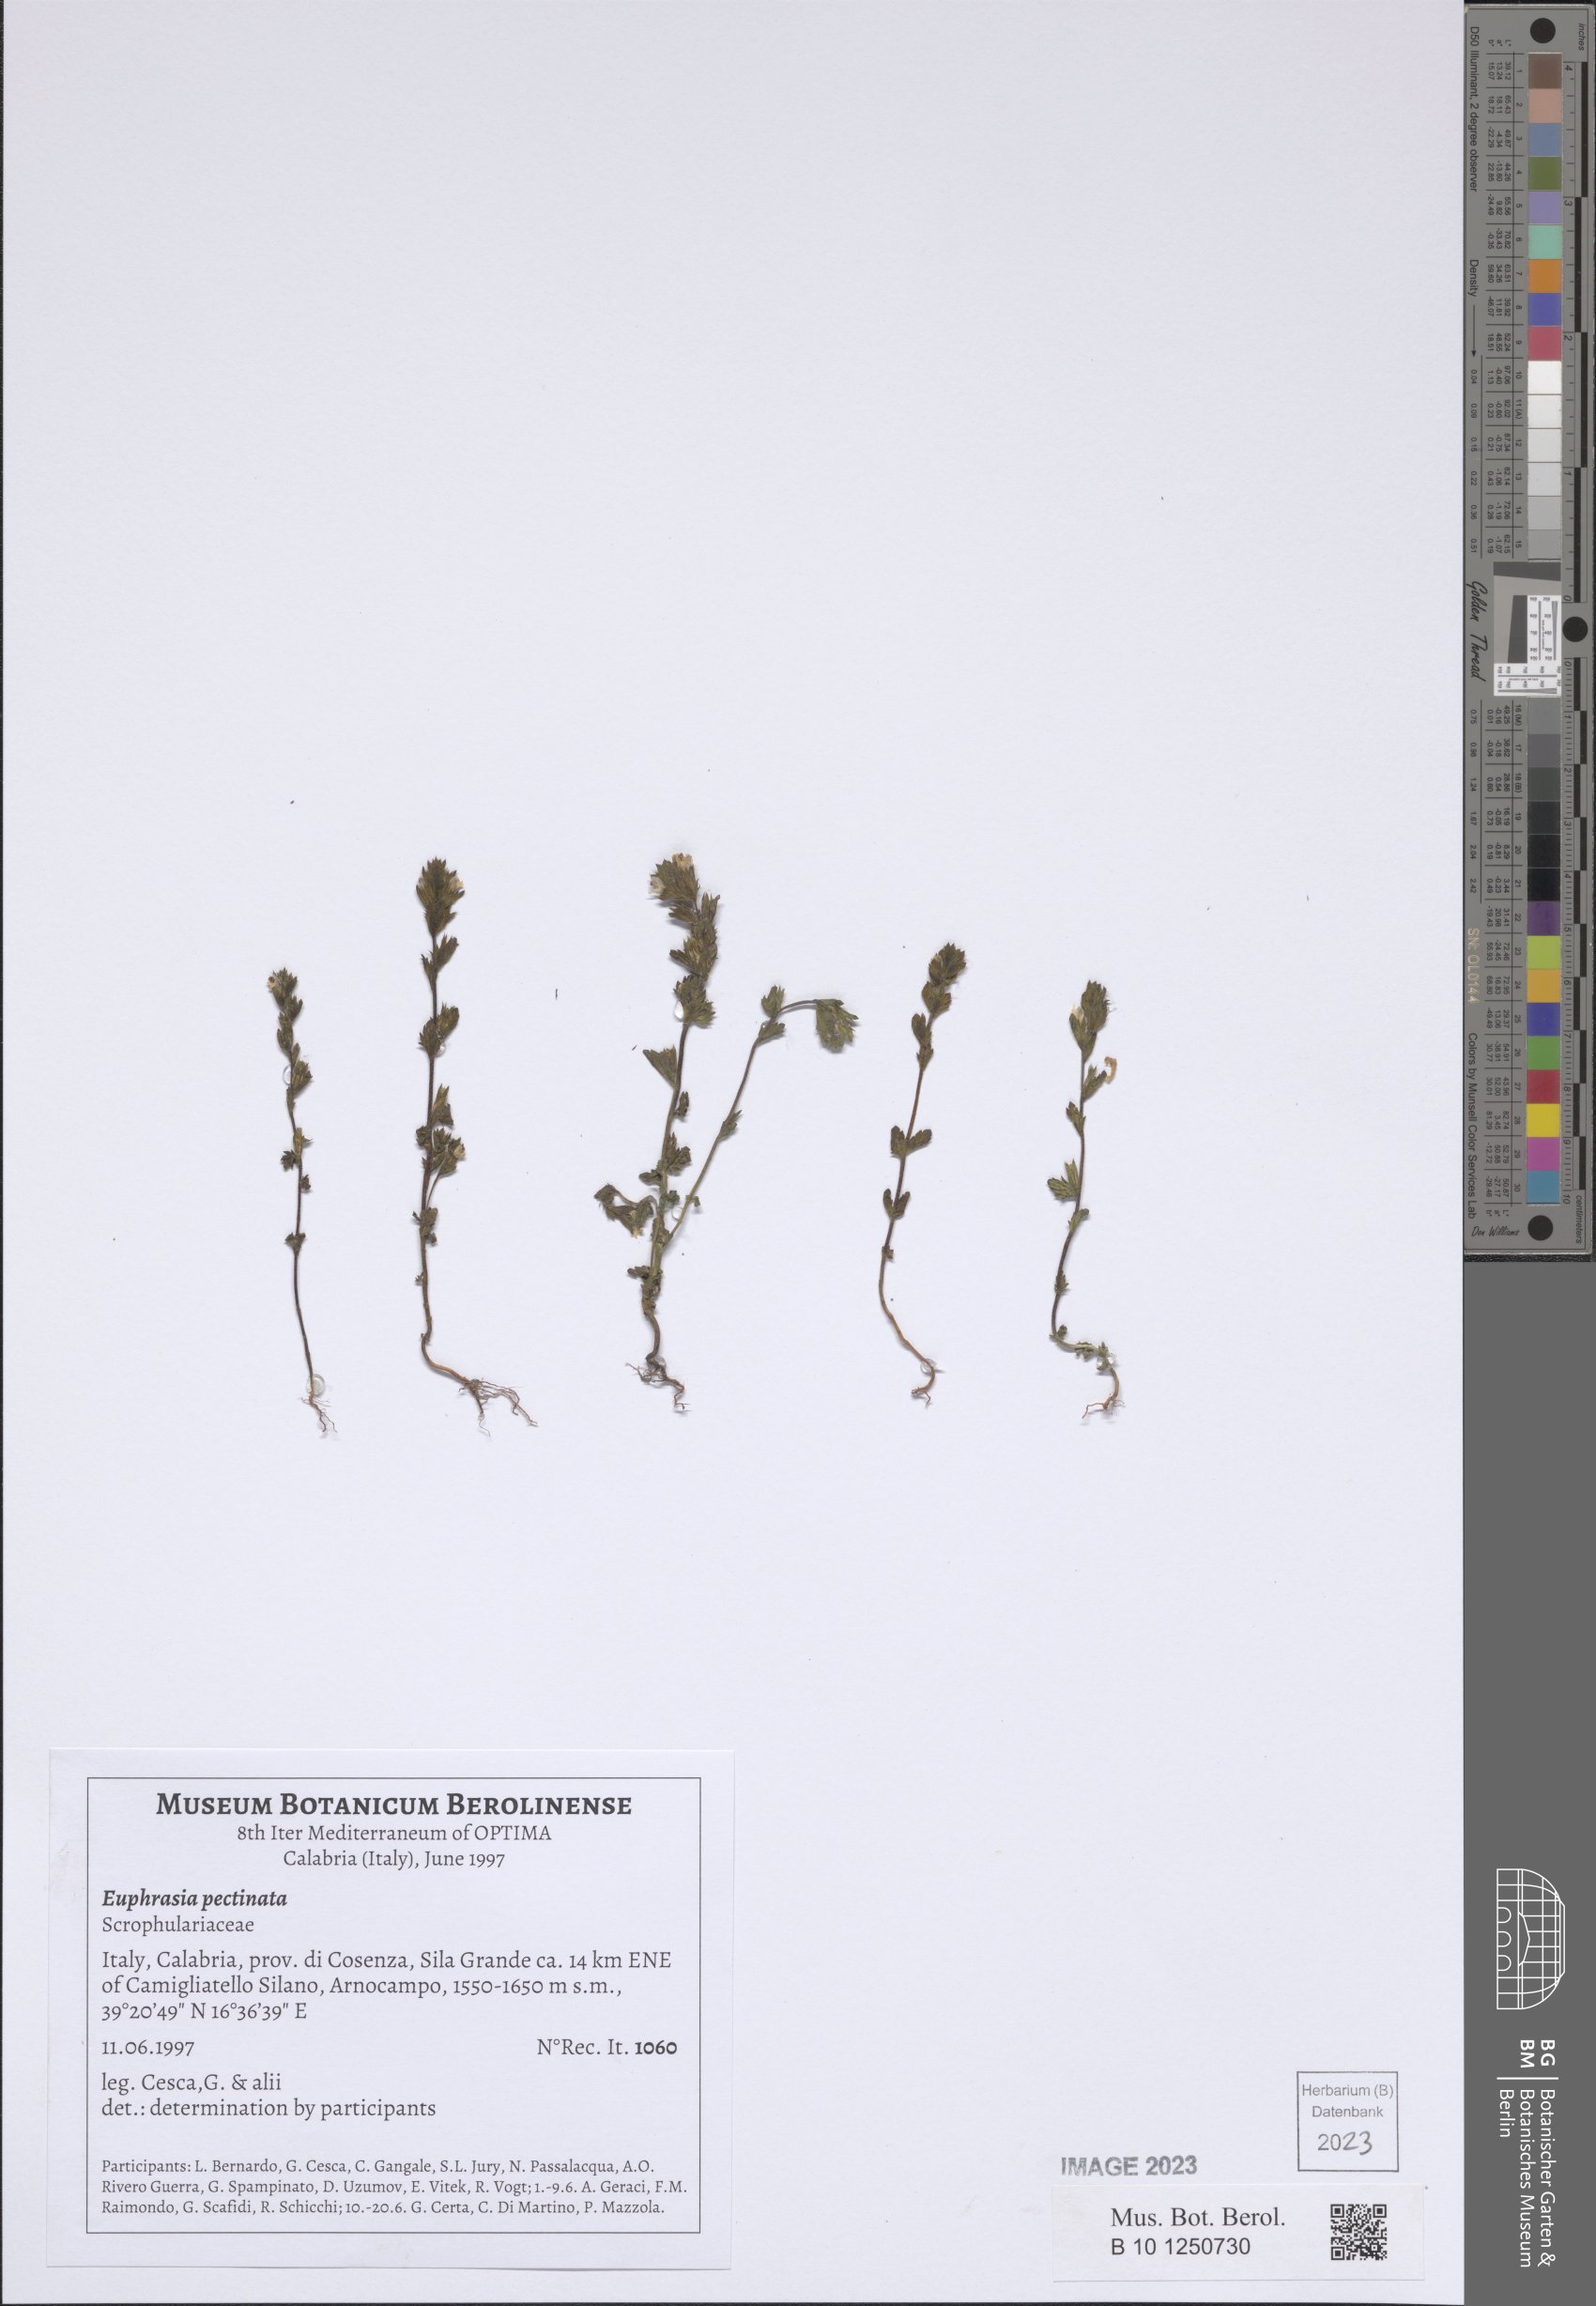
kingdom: Plantae
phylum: Tracheophyta
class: Magnoliopsida
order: Lamiales
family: Orobanchaceae
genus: Euphrasia
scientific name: Euphrasia pectinata
